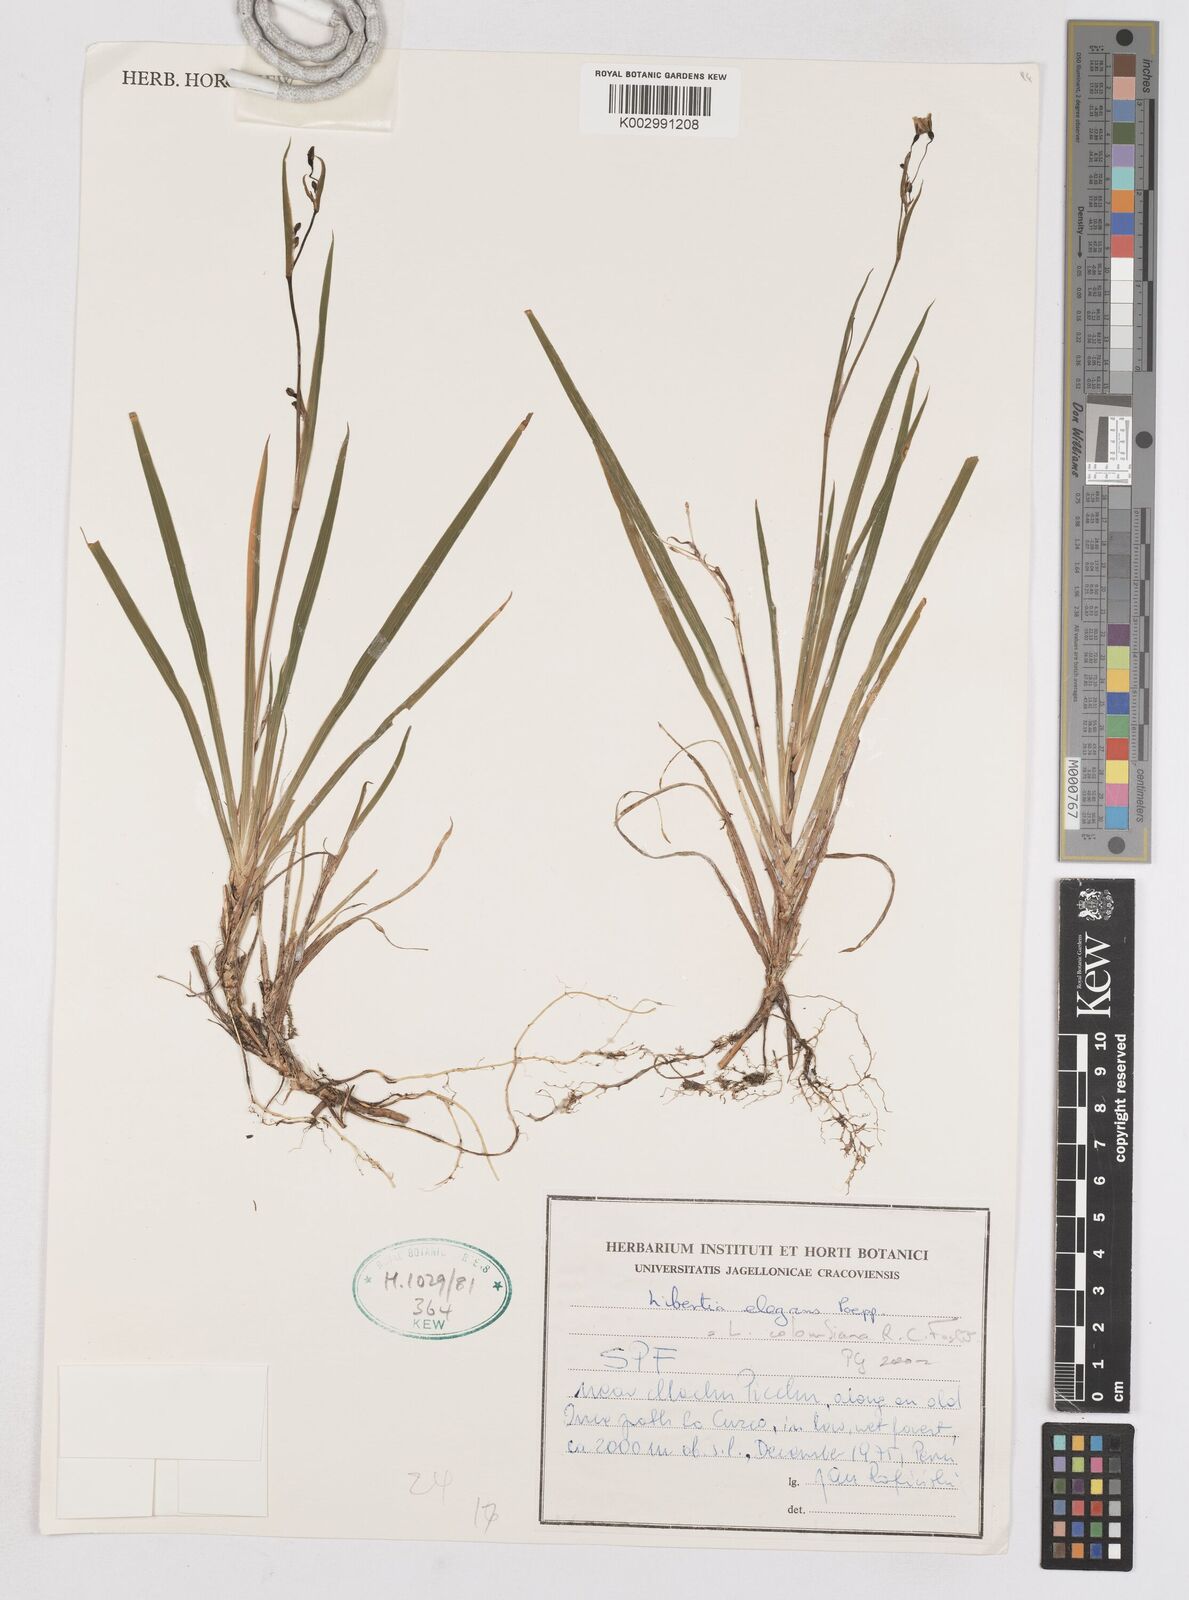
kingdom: Plantae
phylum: Tracheophyta
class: Liliopsida
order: Asparagales
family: Iridaceae
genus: Libertia
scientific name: Libertia colombiana
